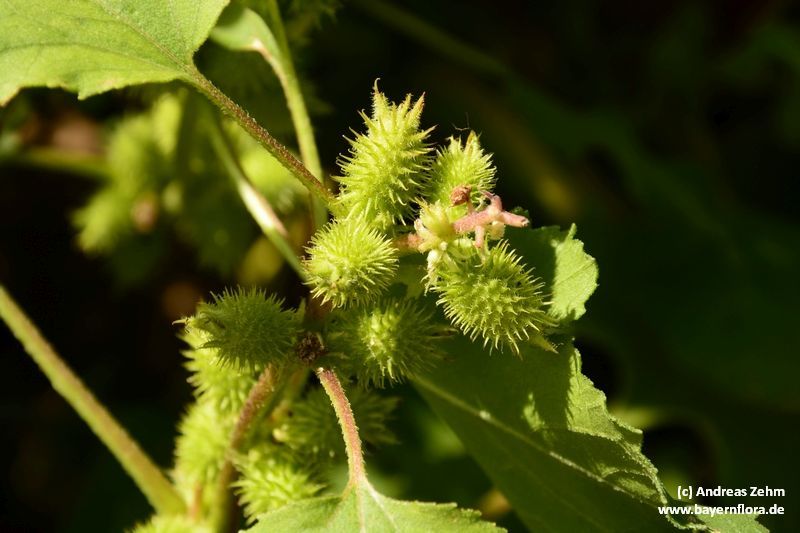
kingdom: Plantae
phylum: Tracheophyta
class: Magnoliopsida
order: Asterales
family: Asteraceae
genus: Xanthium
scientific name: Xanthium strumarium
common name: Rough cocklebur
